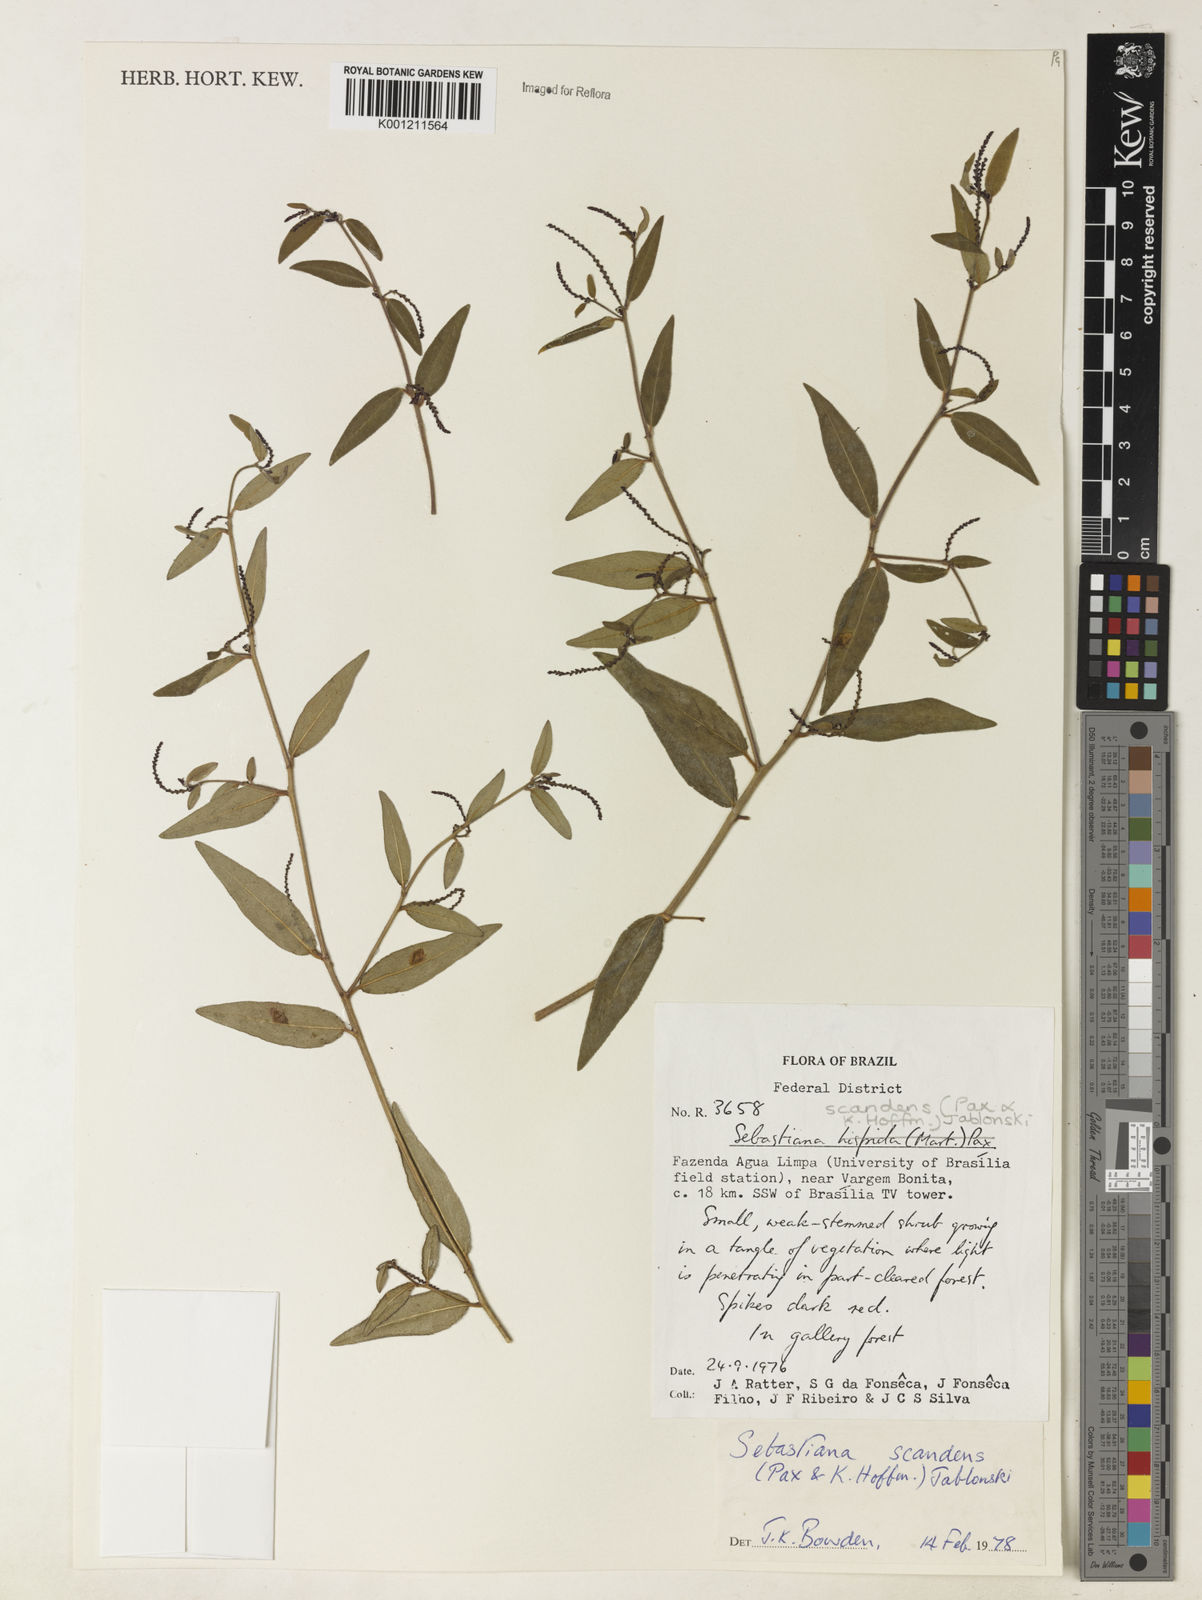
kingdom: Plantae
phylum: Tracheophyta
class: Magnoliopsida
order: Malpighiales
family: Euphorbiaceae
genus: Microstachys
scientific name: Microstachys hispida
